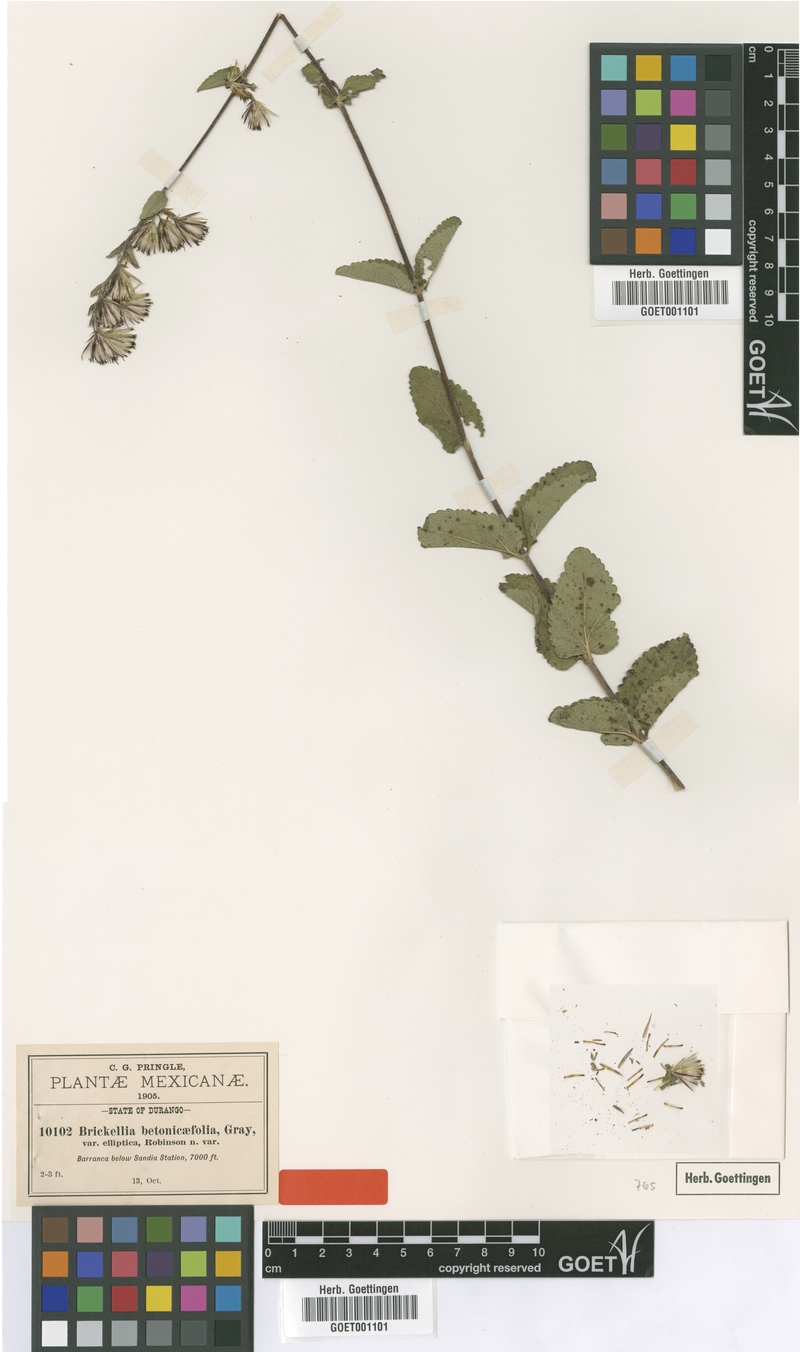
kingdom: Plantae
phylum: Tracheophyta
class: Magnoliopsida
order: Asterales
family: Asteraceae
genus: Brickellia
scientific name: Brickellia betonicifolia
